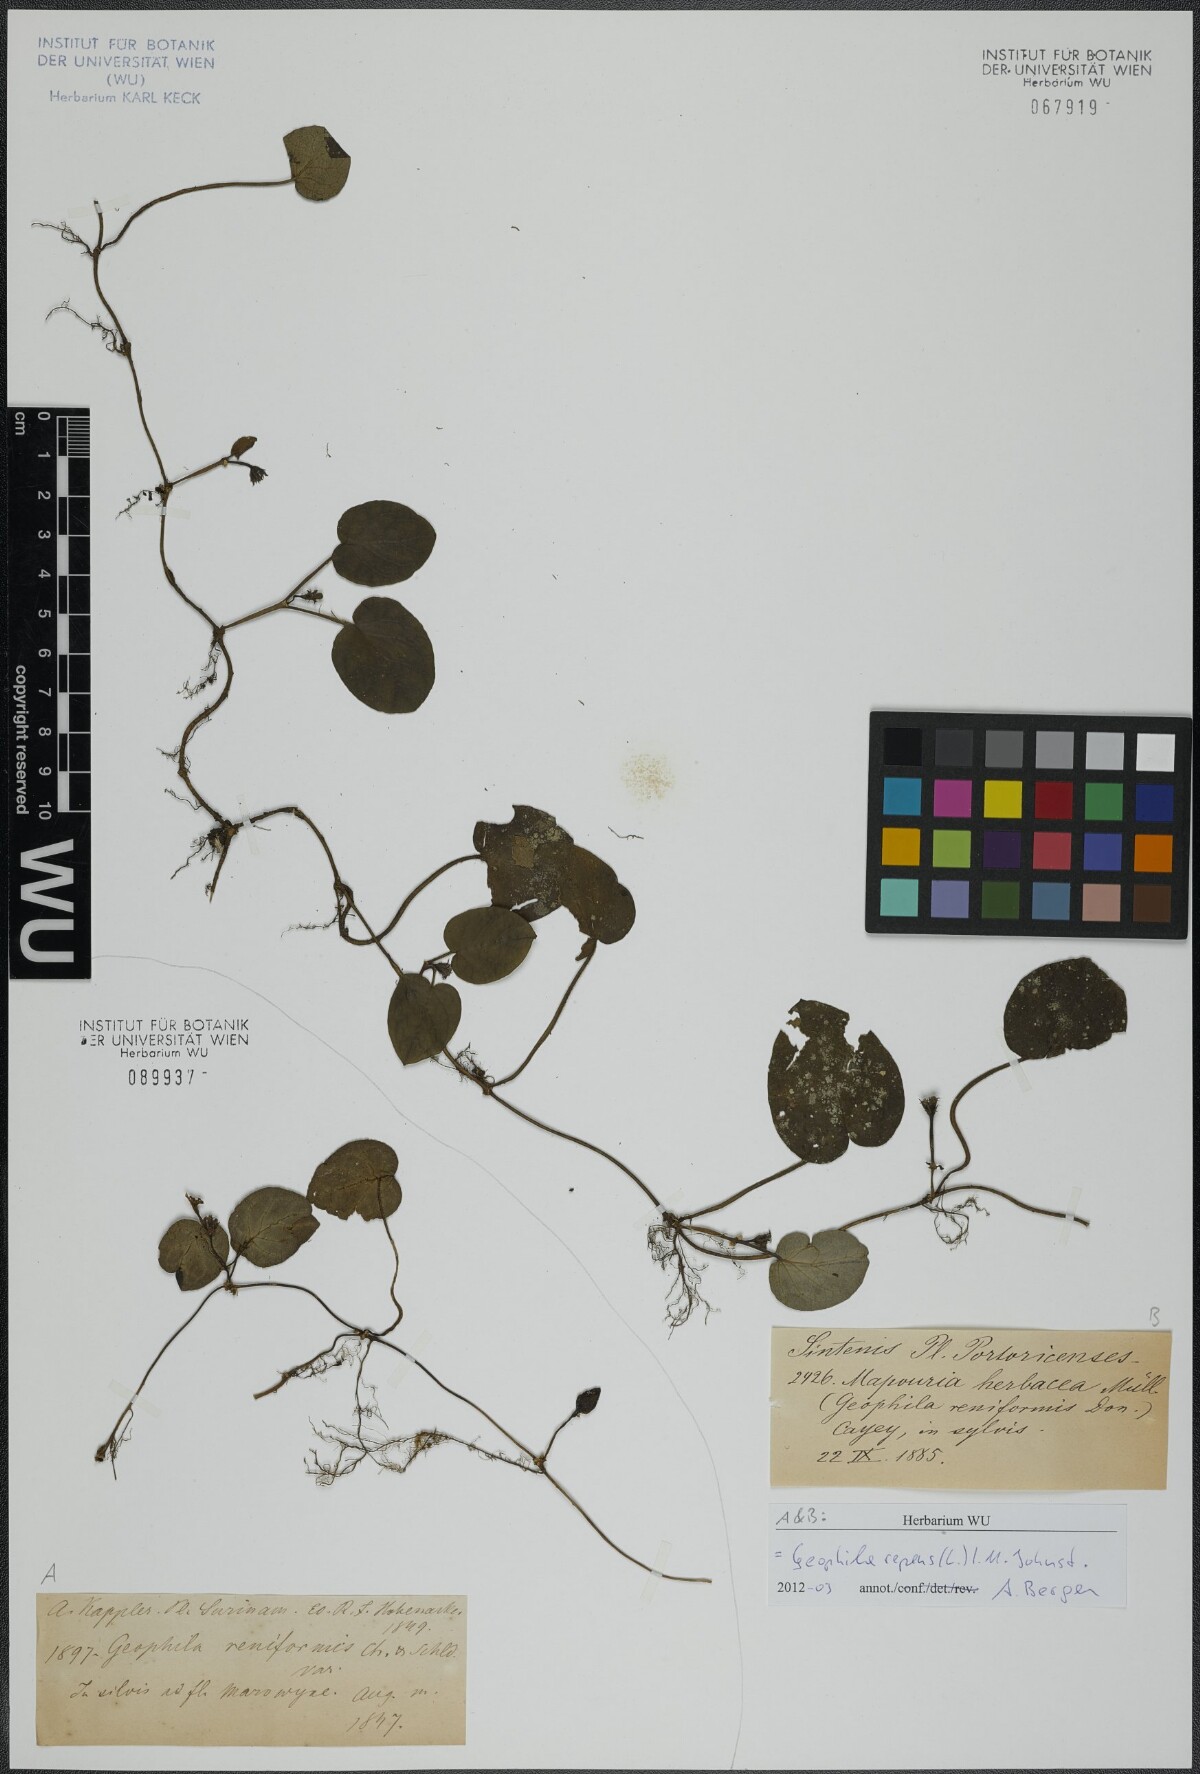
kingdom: Plantae
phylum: Tracheophyta
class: Magnoliopsida
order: Gentianales
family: Rubiaceae
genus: Geophila
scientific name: Geophila repens
